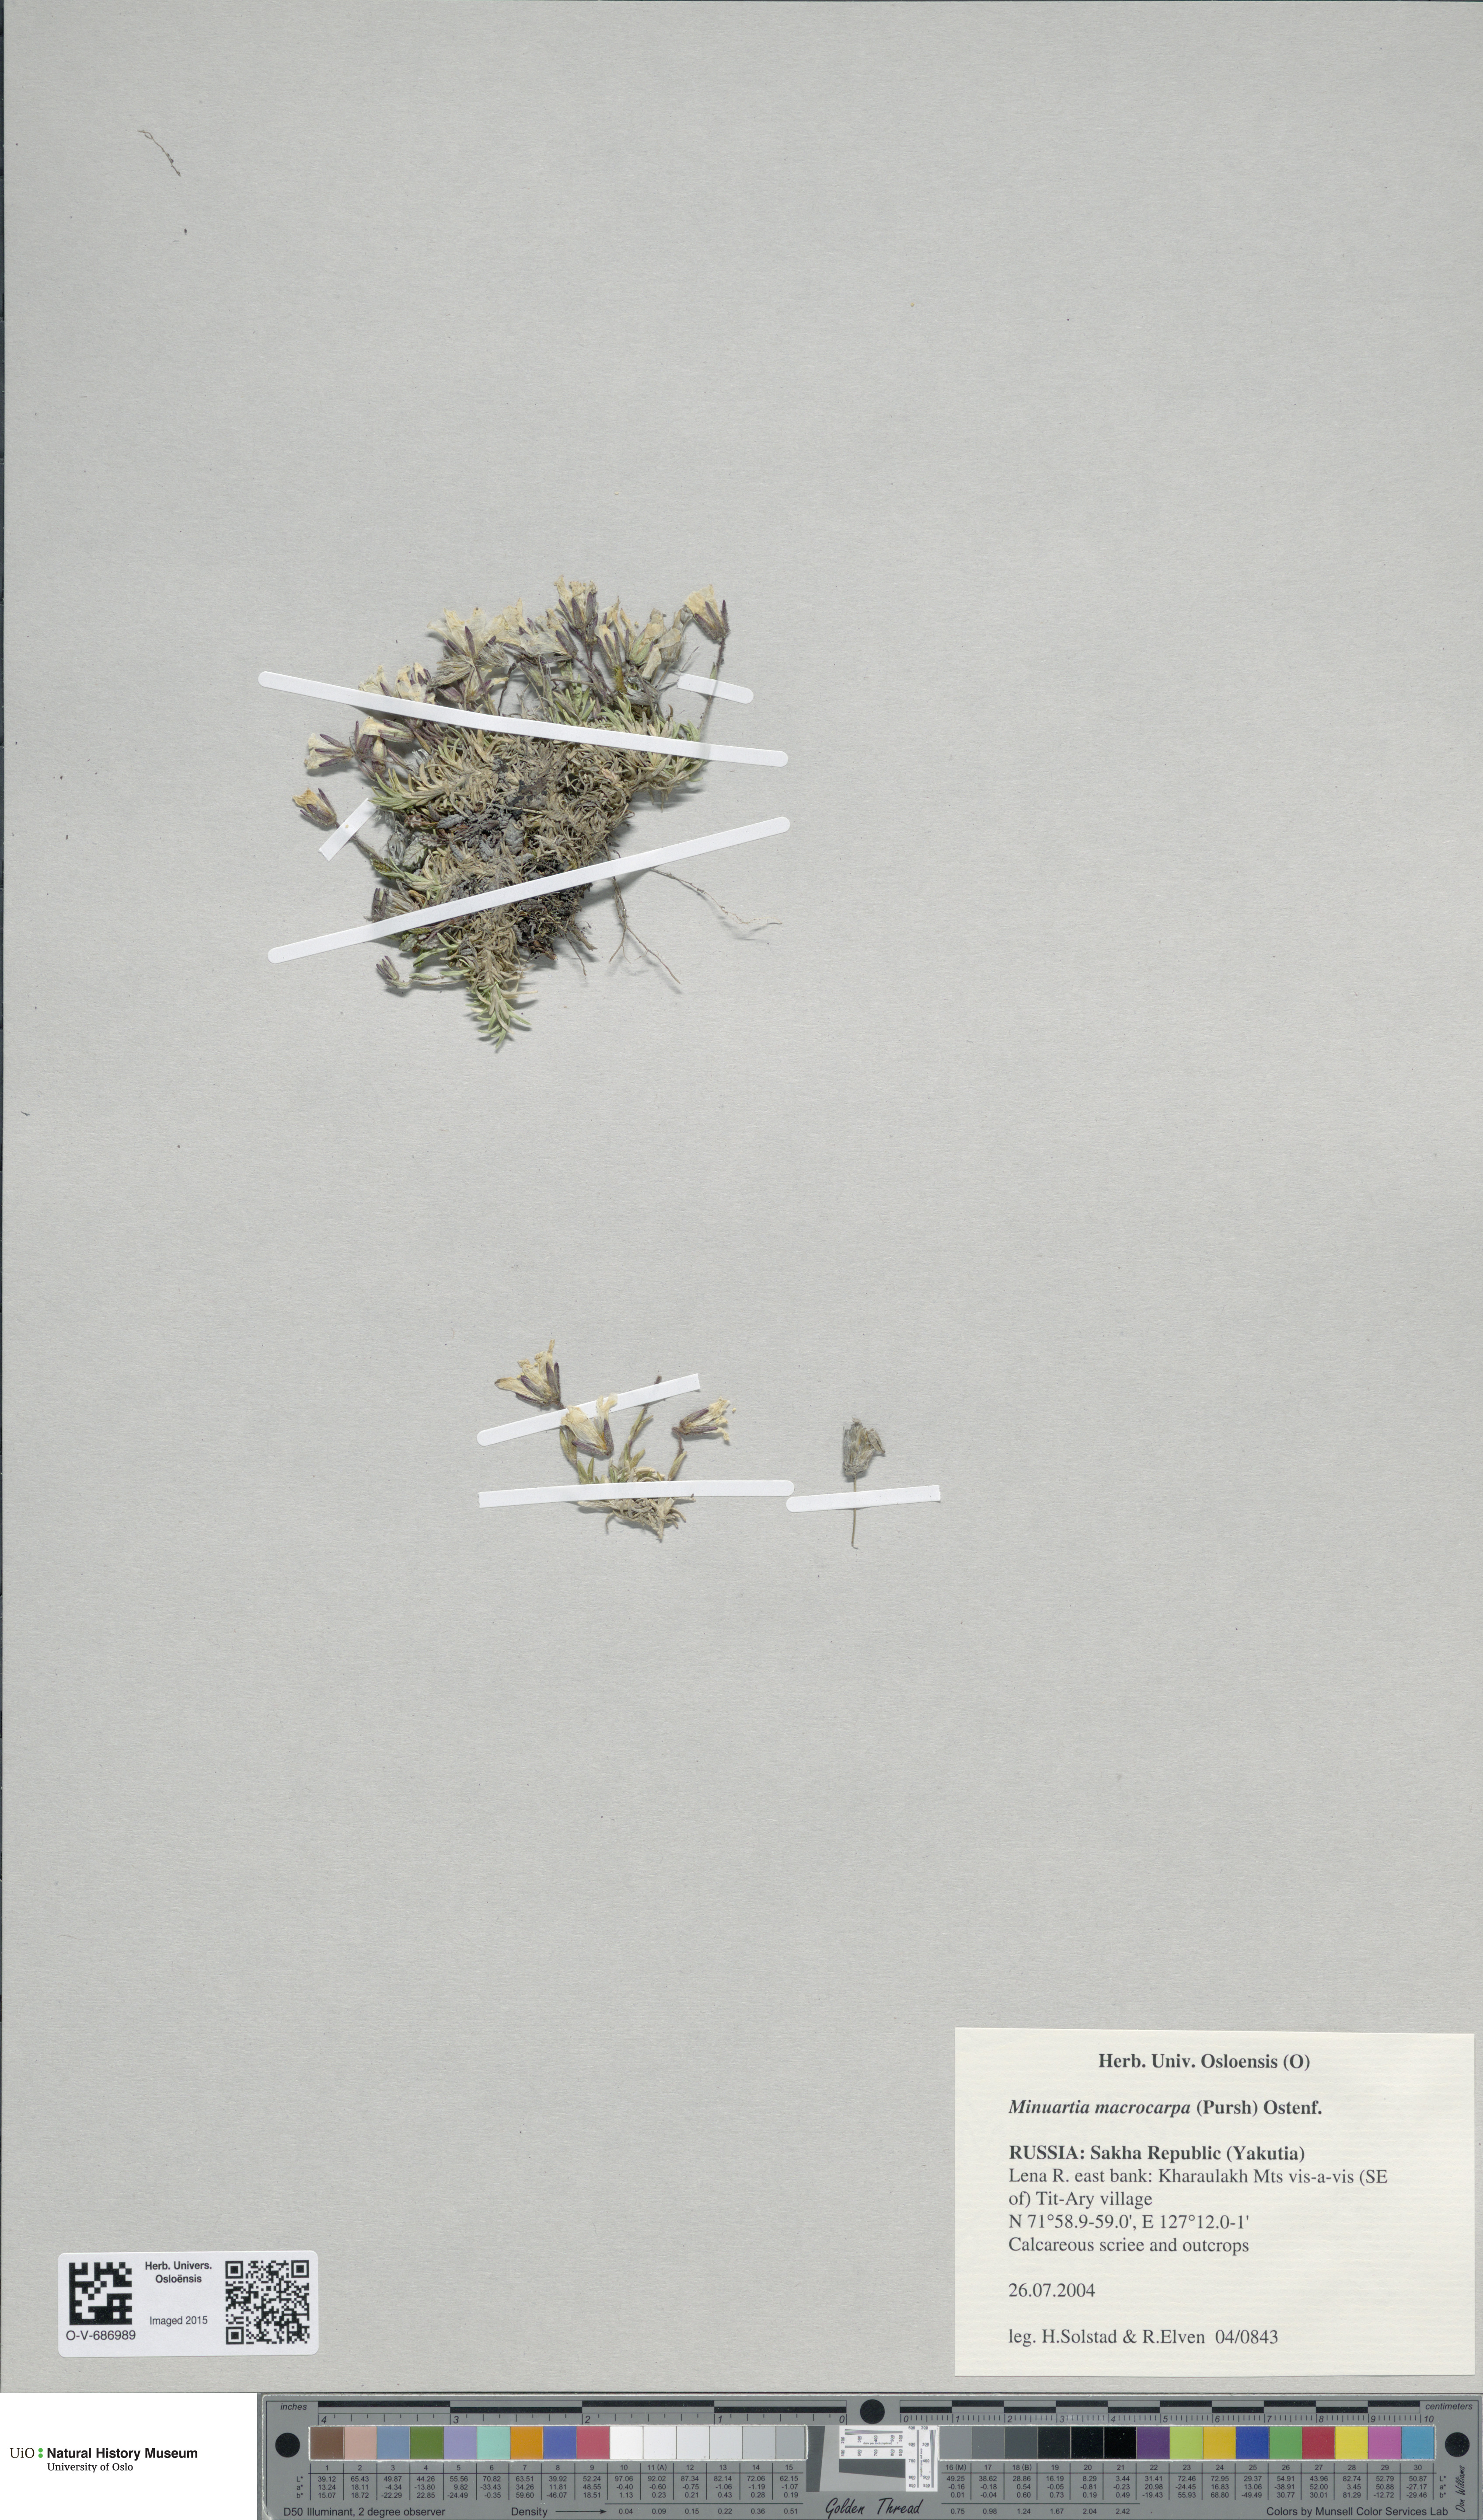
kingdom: Plantae
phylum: Tracheophyta
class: Magnoliopsida
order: Caryophyllales
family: Caryophyllaceae
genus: Pseudocherleria
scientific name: Pseudocherleria macrocarpa
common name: Large-fruit sandwort
